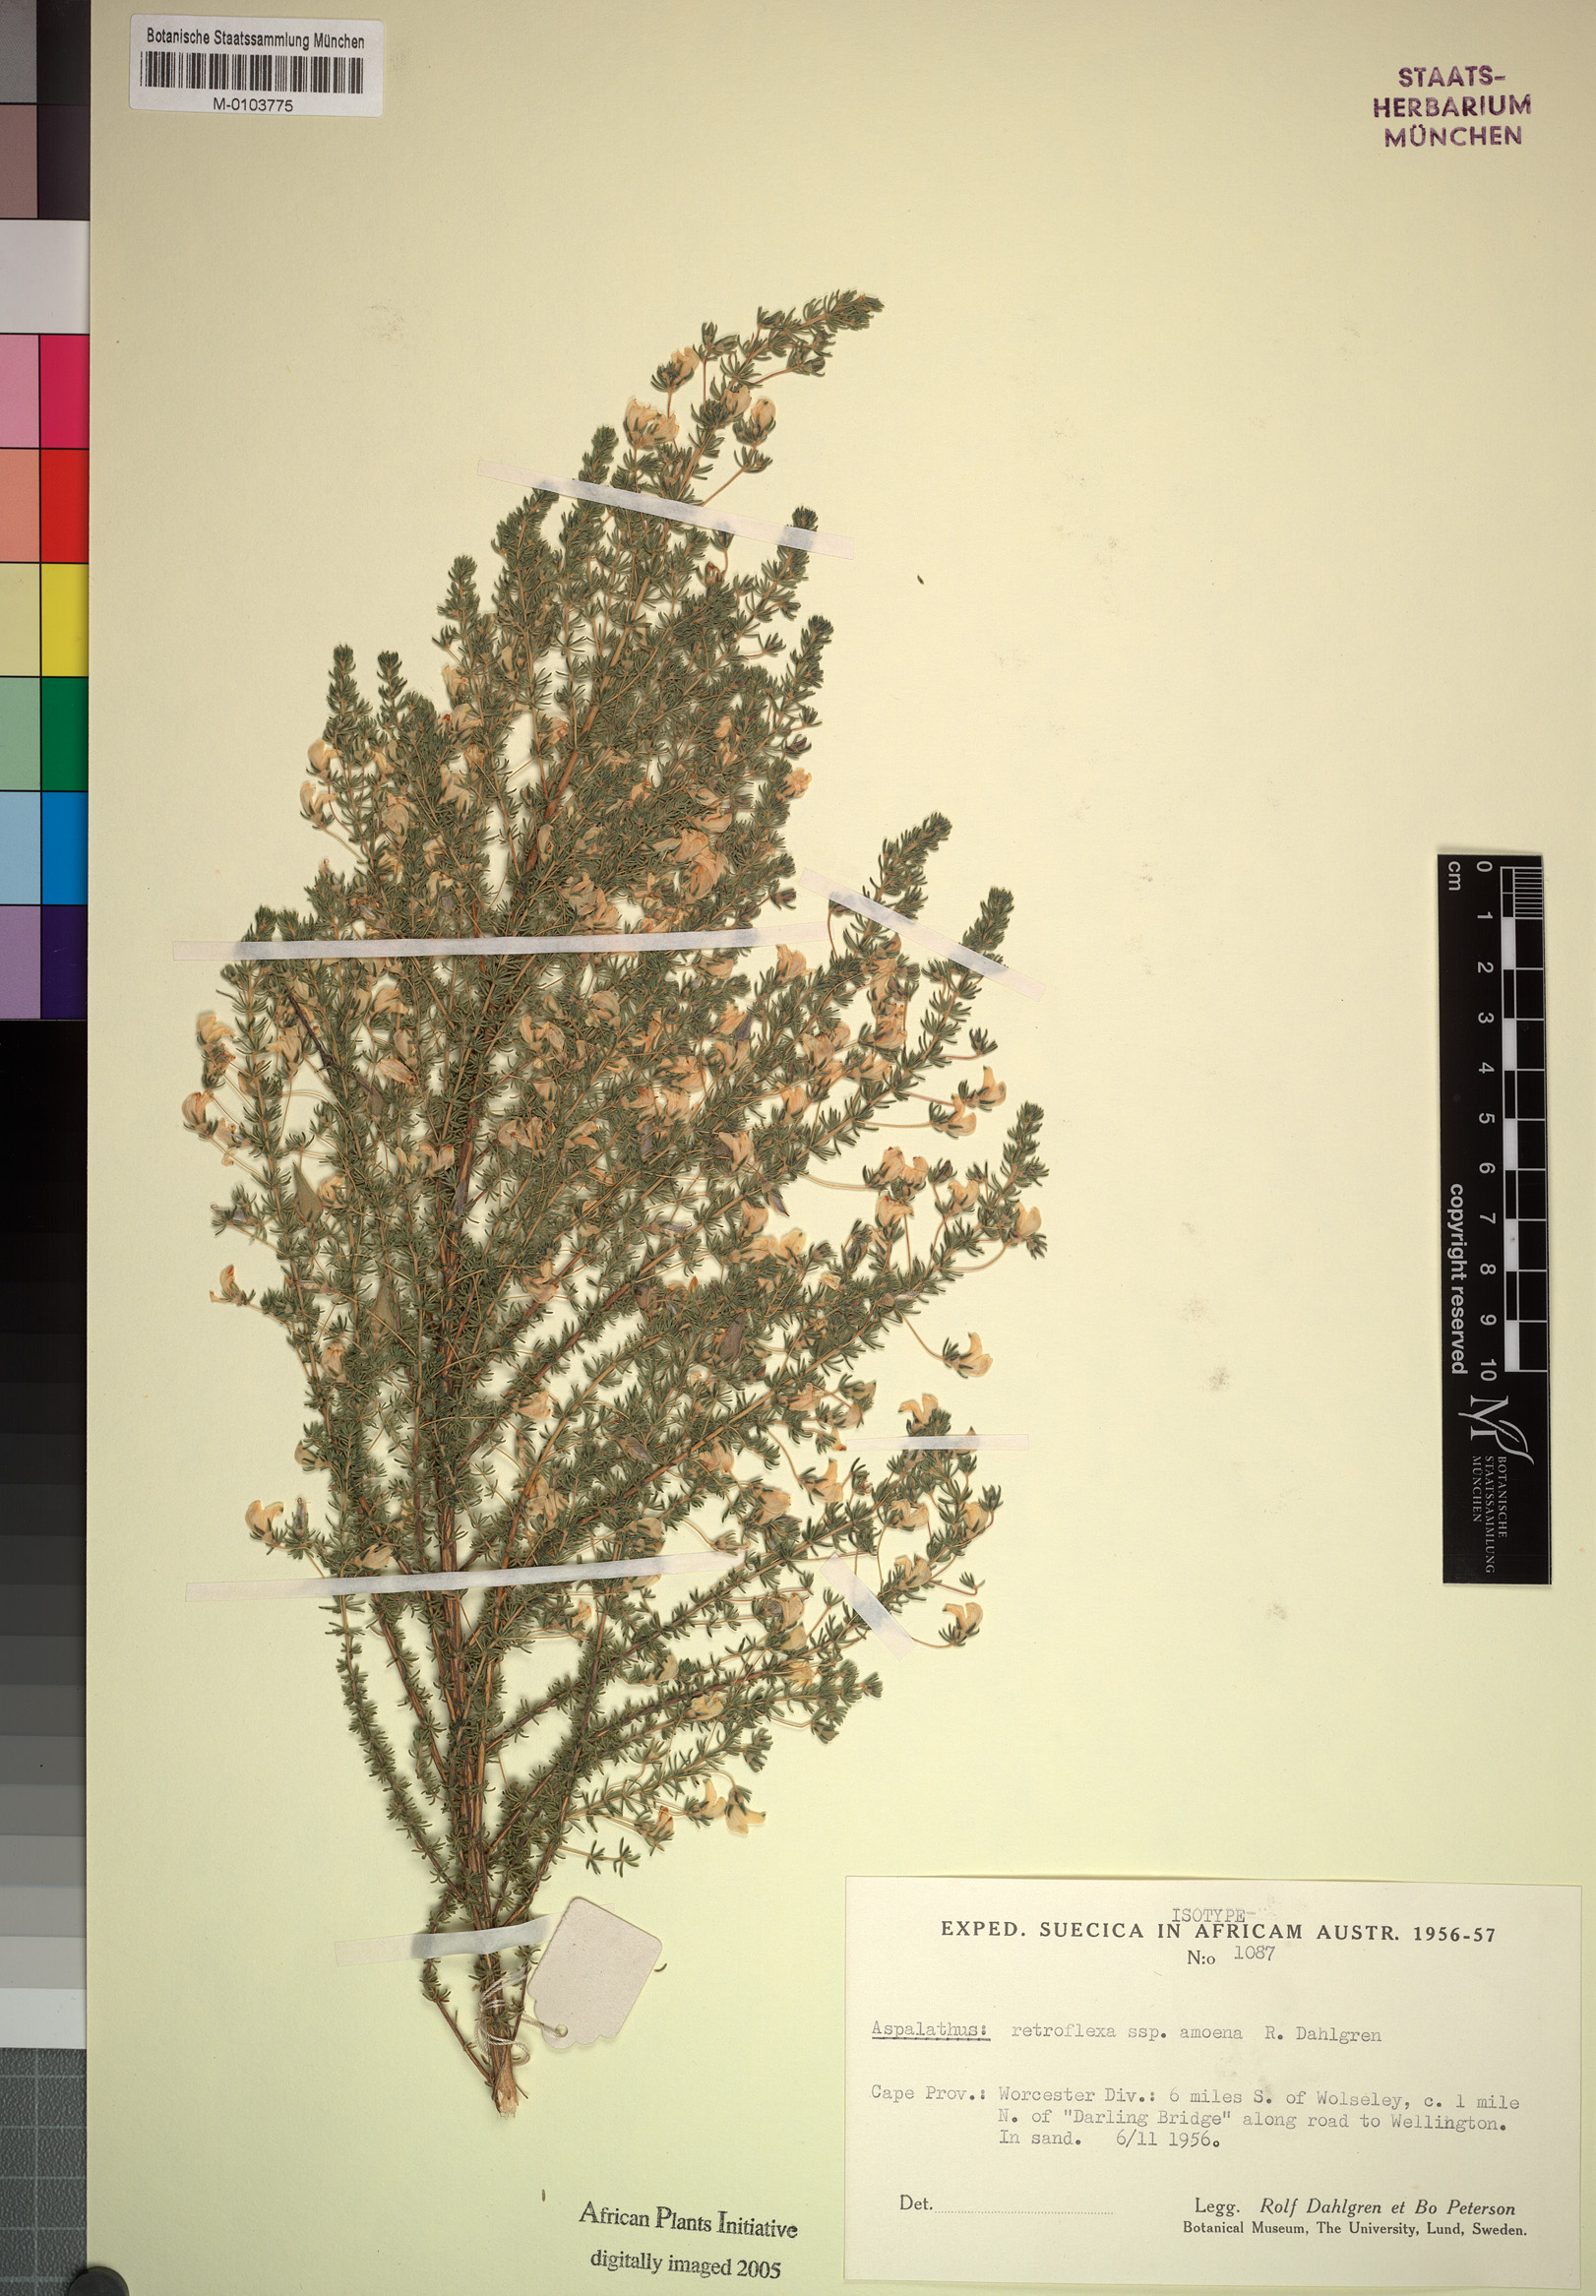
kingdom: Plantae
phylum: Tracheophyta
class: Magnoliopsida
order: Fabales
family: Fabaceae
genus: Aspalathus
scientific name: Aspalathus amoena
